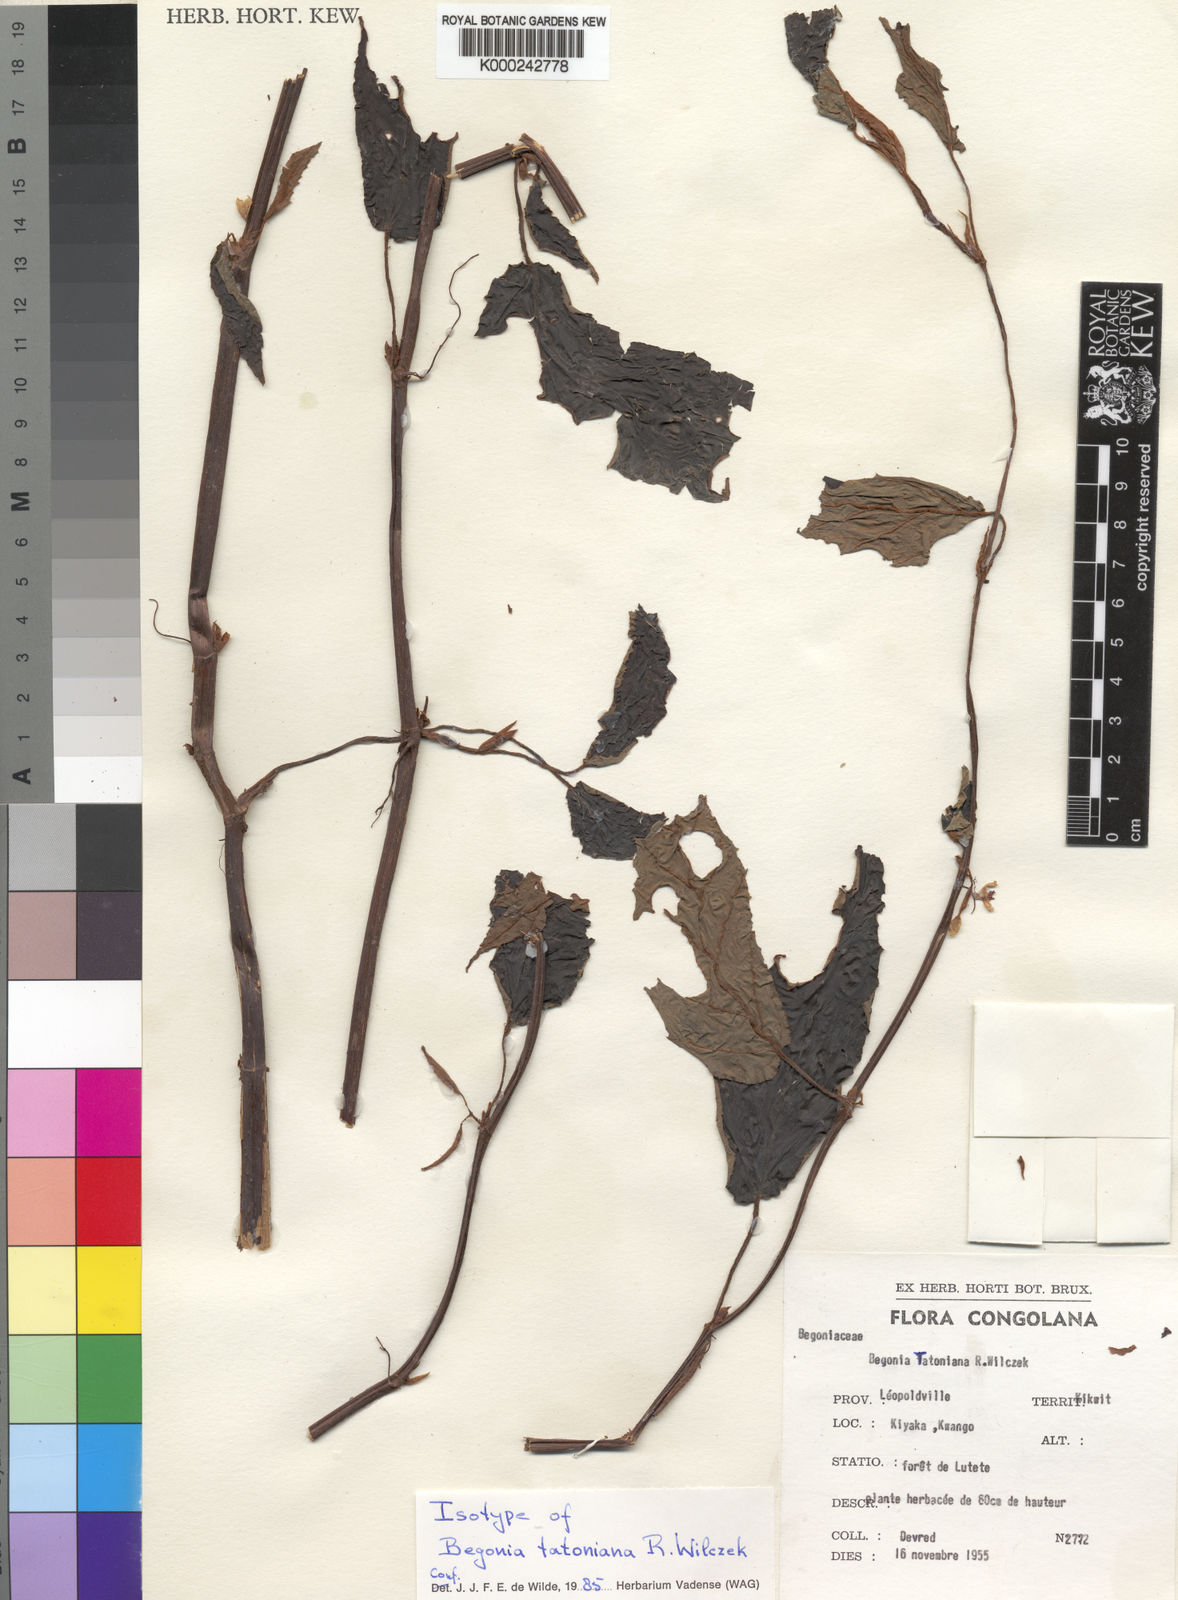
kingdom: Plantae
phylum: Tracheophyta
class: Magnoliopsida
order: Cucurbitales
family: Begoniaceae
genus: Begonia
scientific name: Begonia tatoniana
